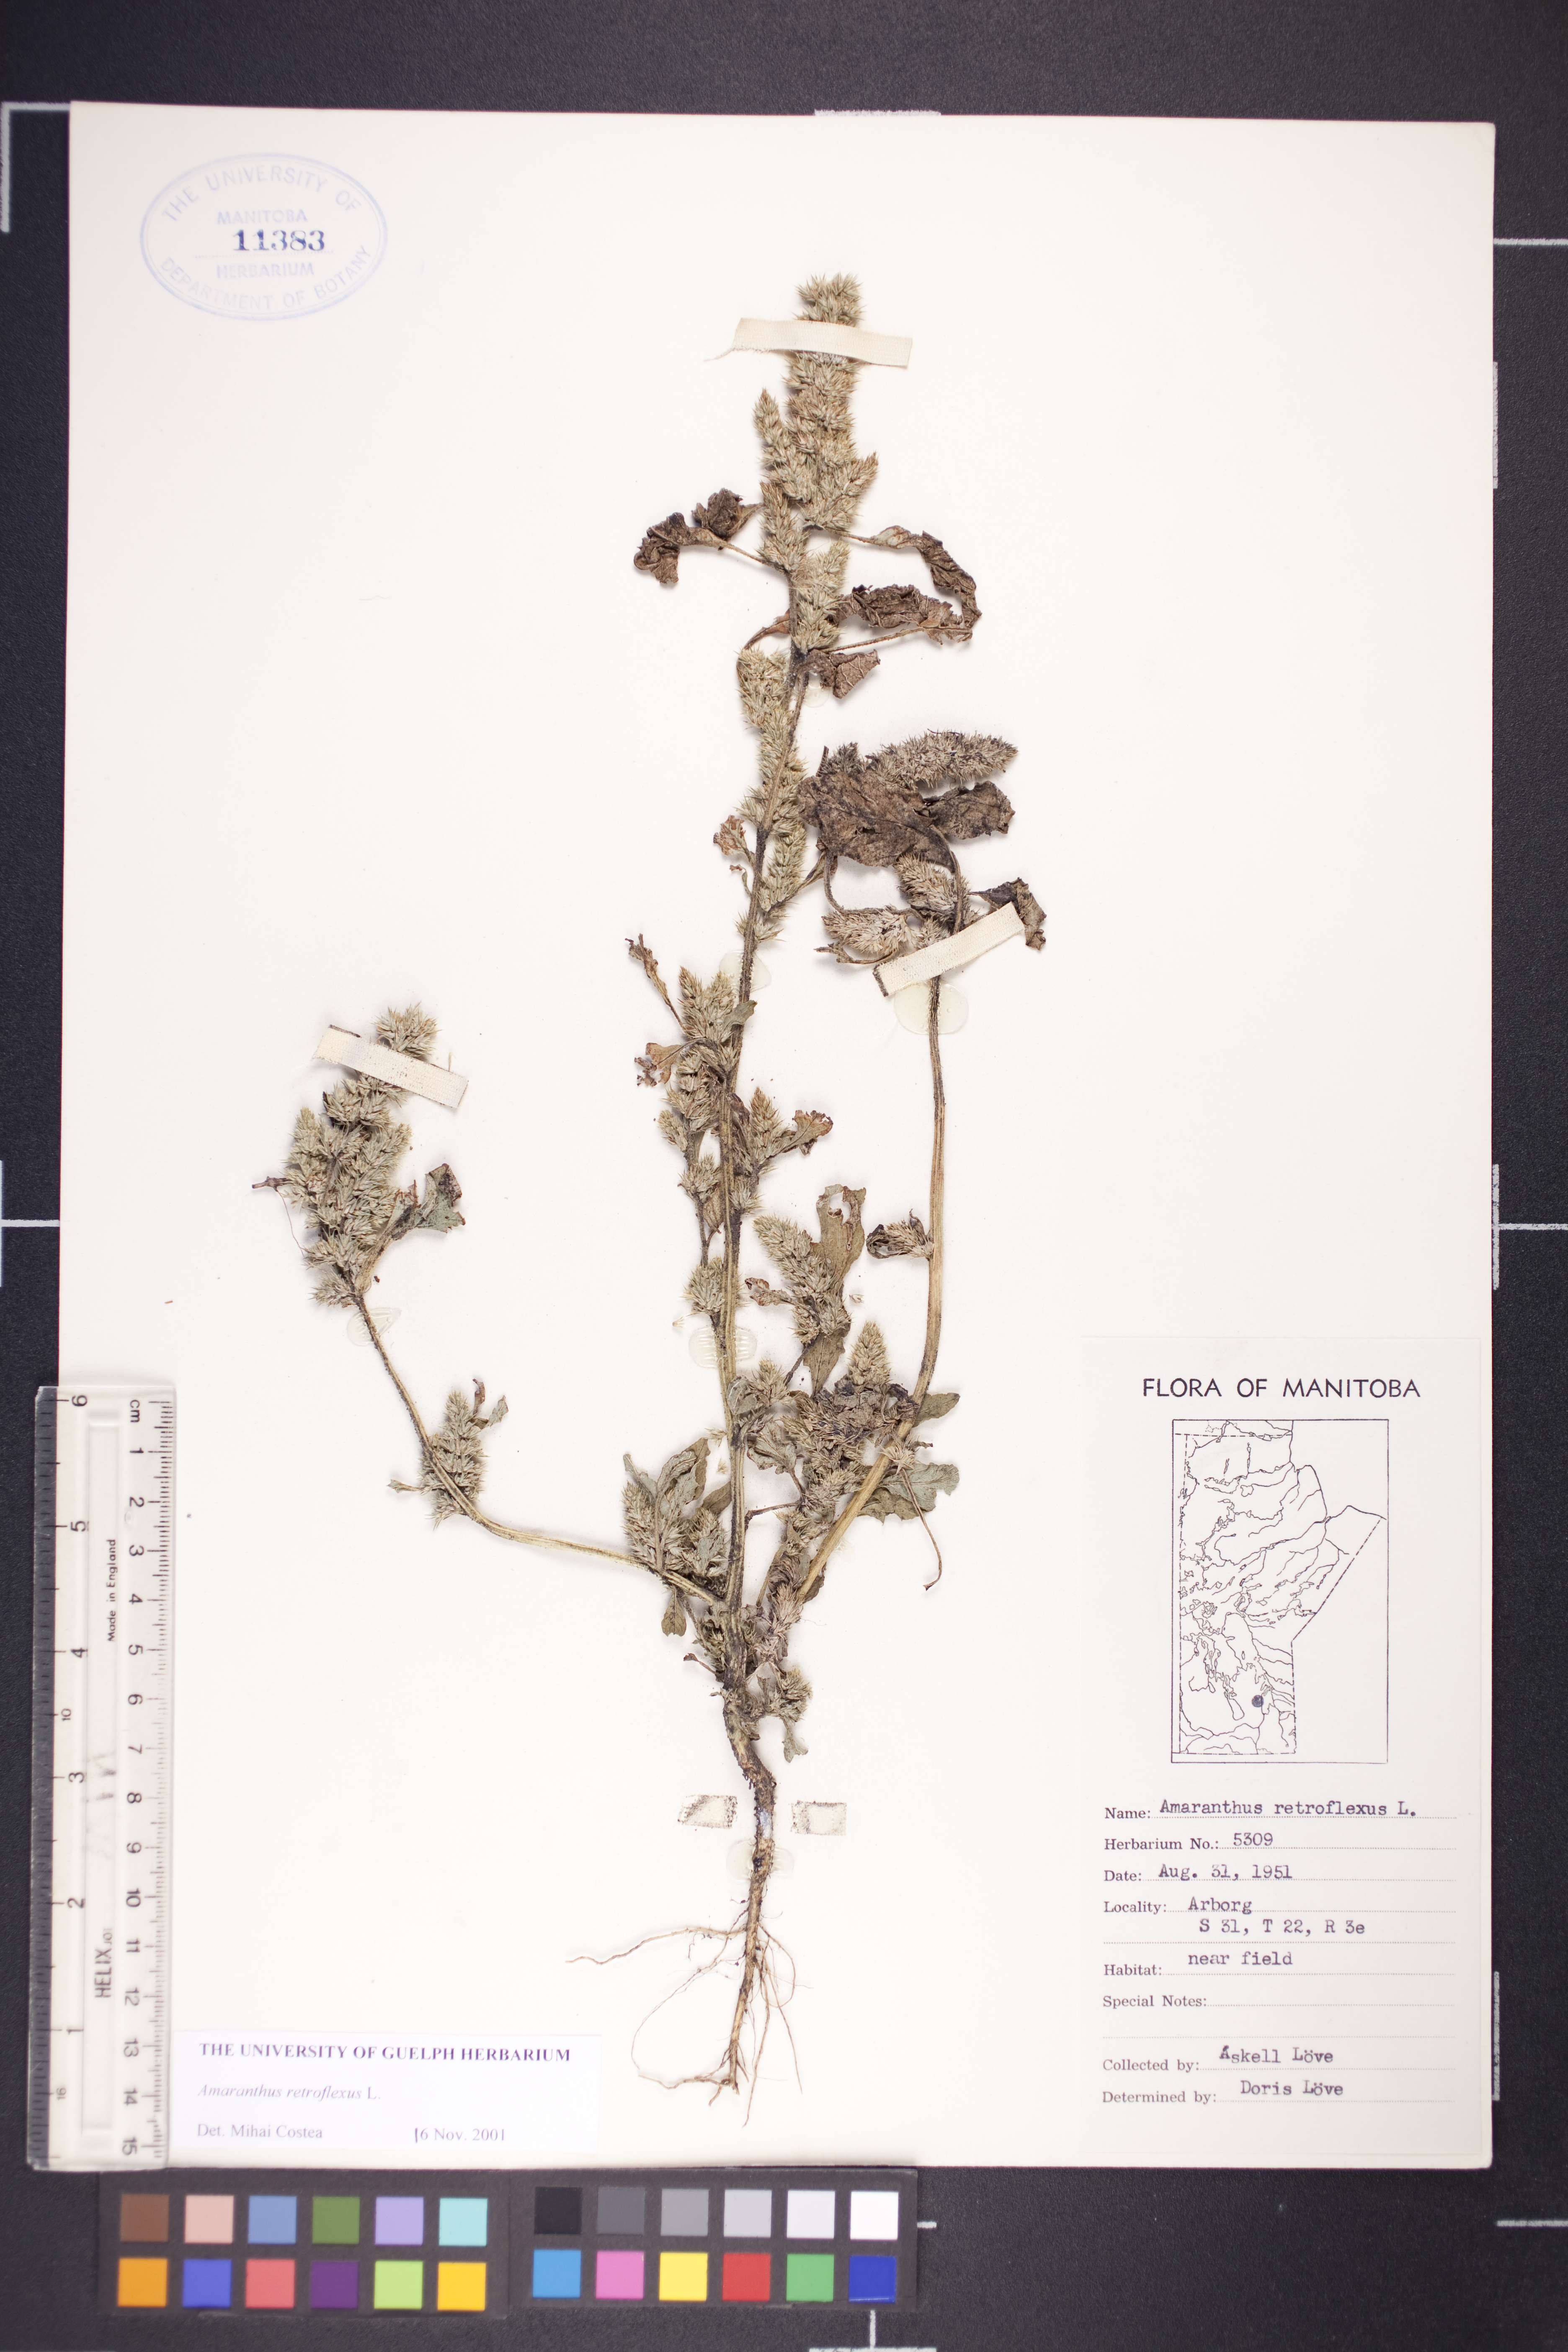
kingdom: Plantae
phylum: Tracheophyta
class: Magnoliopsida
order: Caryophyllales
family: Amaranthaceae
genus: Amaranthus
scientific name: Amaranthus retroflexus
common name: Redroot amaranth
